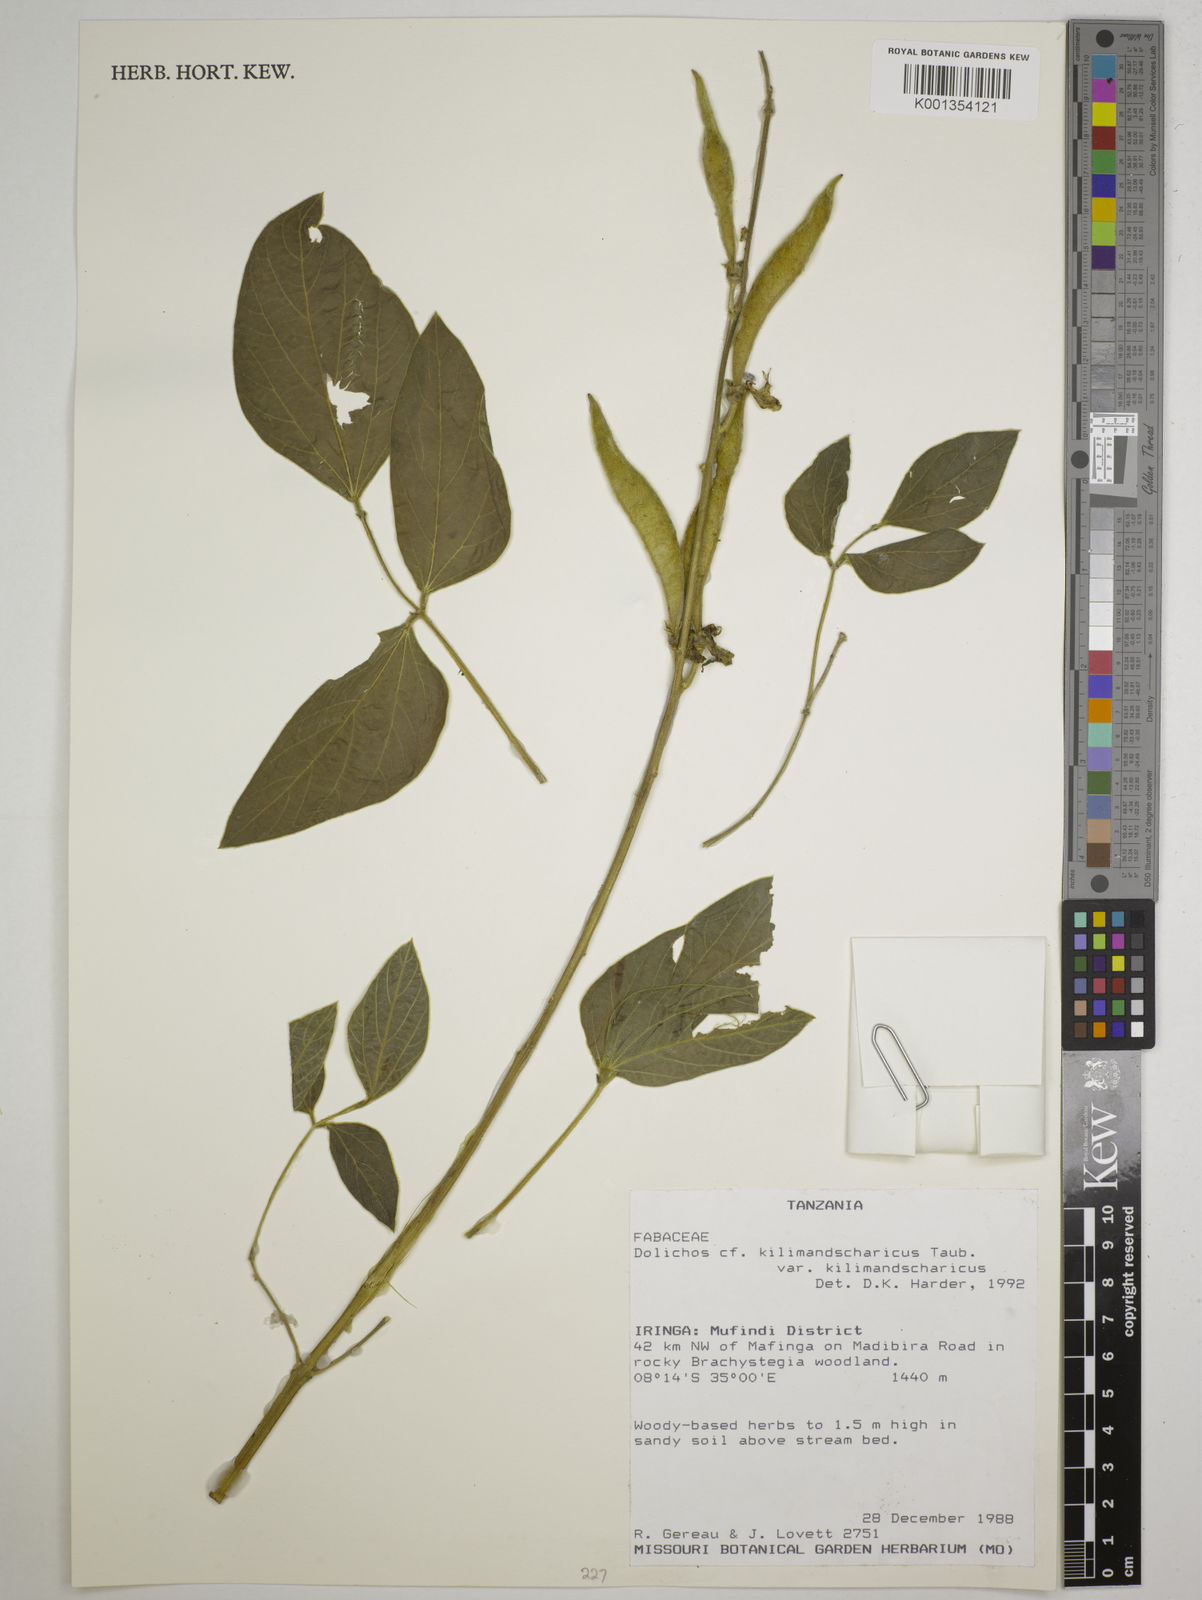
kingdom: Plantae
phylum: Tracheophyta
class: Magnoliopsida
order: Fabales
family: Fabaceae
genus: Dolichos
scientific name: Dolichos
